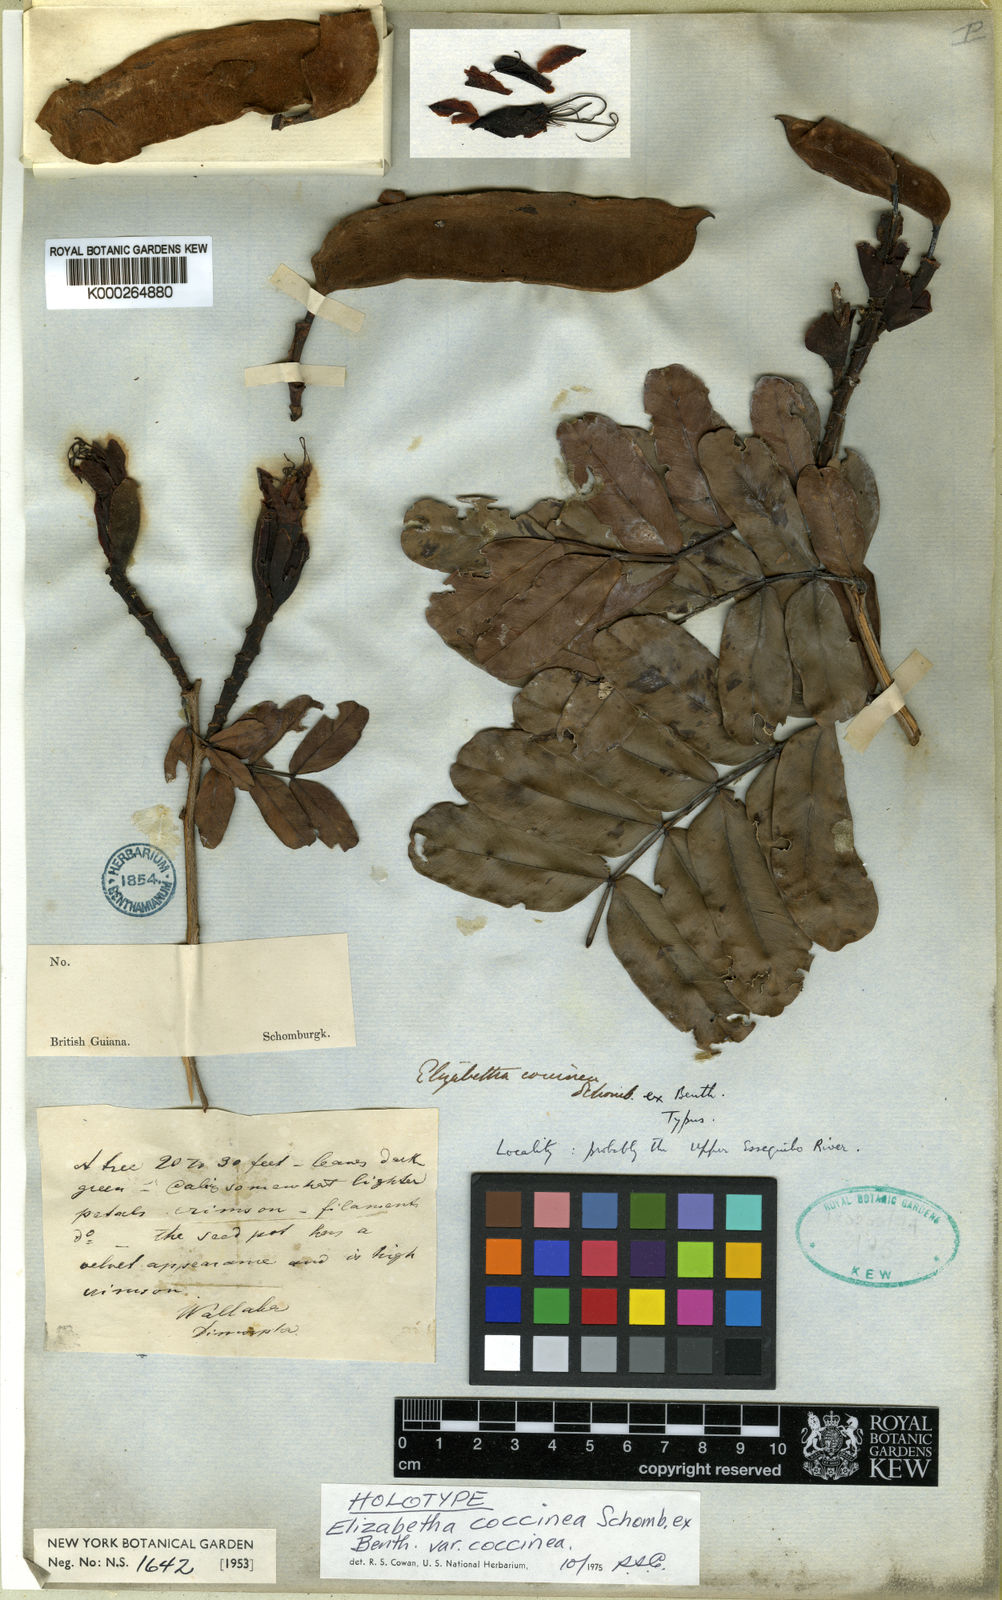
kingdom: Plantae
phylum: Tracheophyta
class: Magnoliopsida
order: Fabales
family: Fabaceae
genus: Paloue
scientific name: Paloue coccinea
